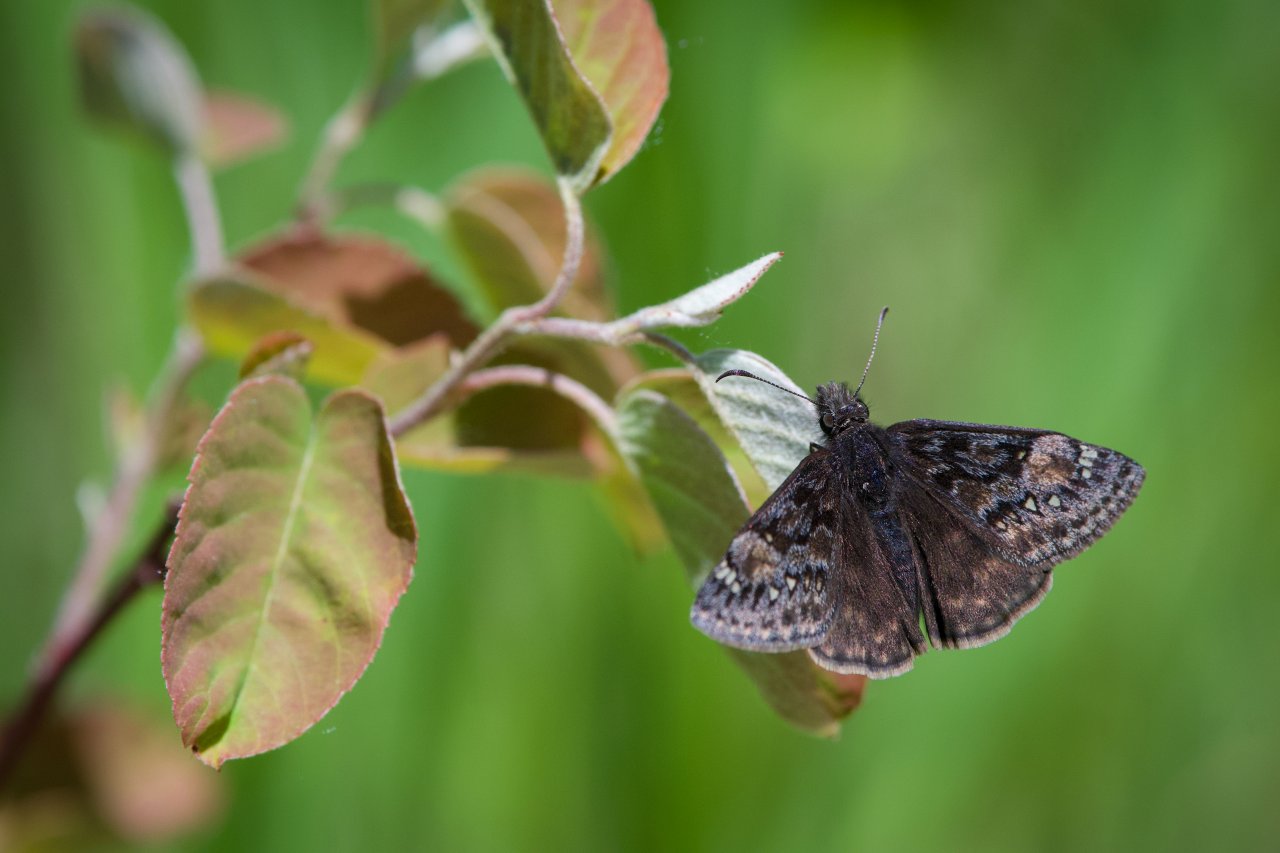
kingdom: Animalia
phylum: Arthropoda
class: Insecta
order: Lepidoptera
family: Hesperiidae
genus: Gesta
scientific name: Gesta
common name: Juvenal's Duskywing
